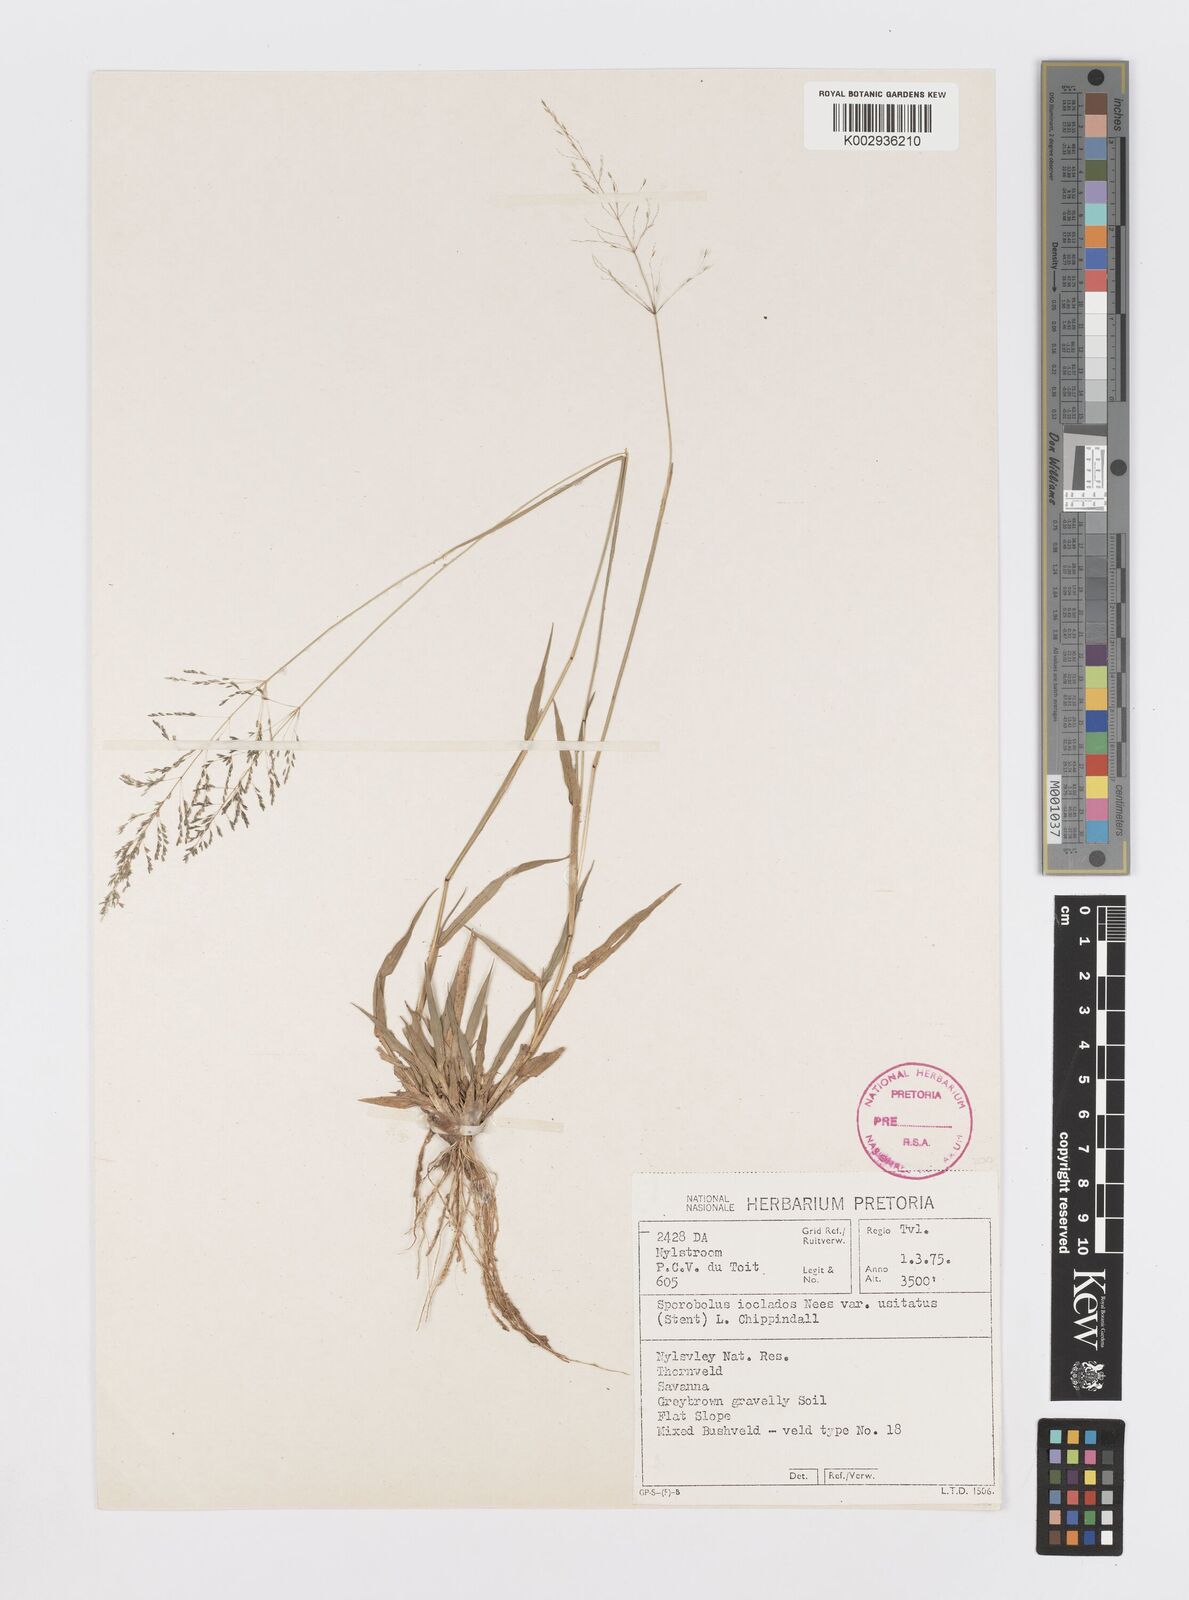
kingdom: Plantae
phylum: Tracheophyta
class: Liliopsida
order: Poales
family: Poaceae
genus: Sporobolus
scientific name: Sporobolus ioclados
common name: Pan dropseed
